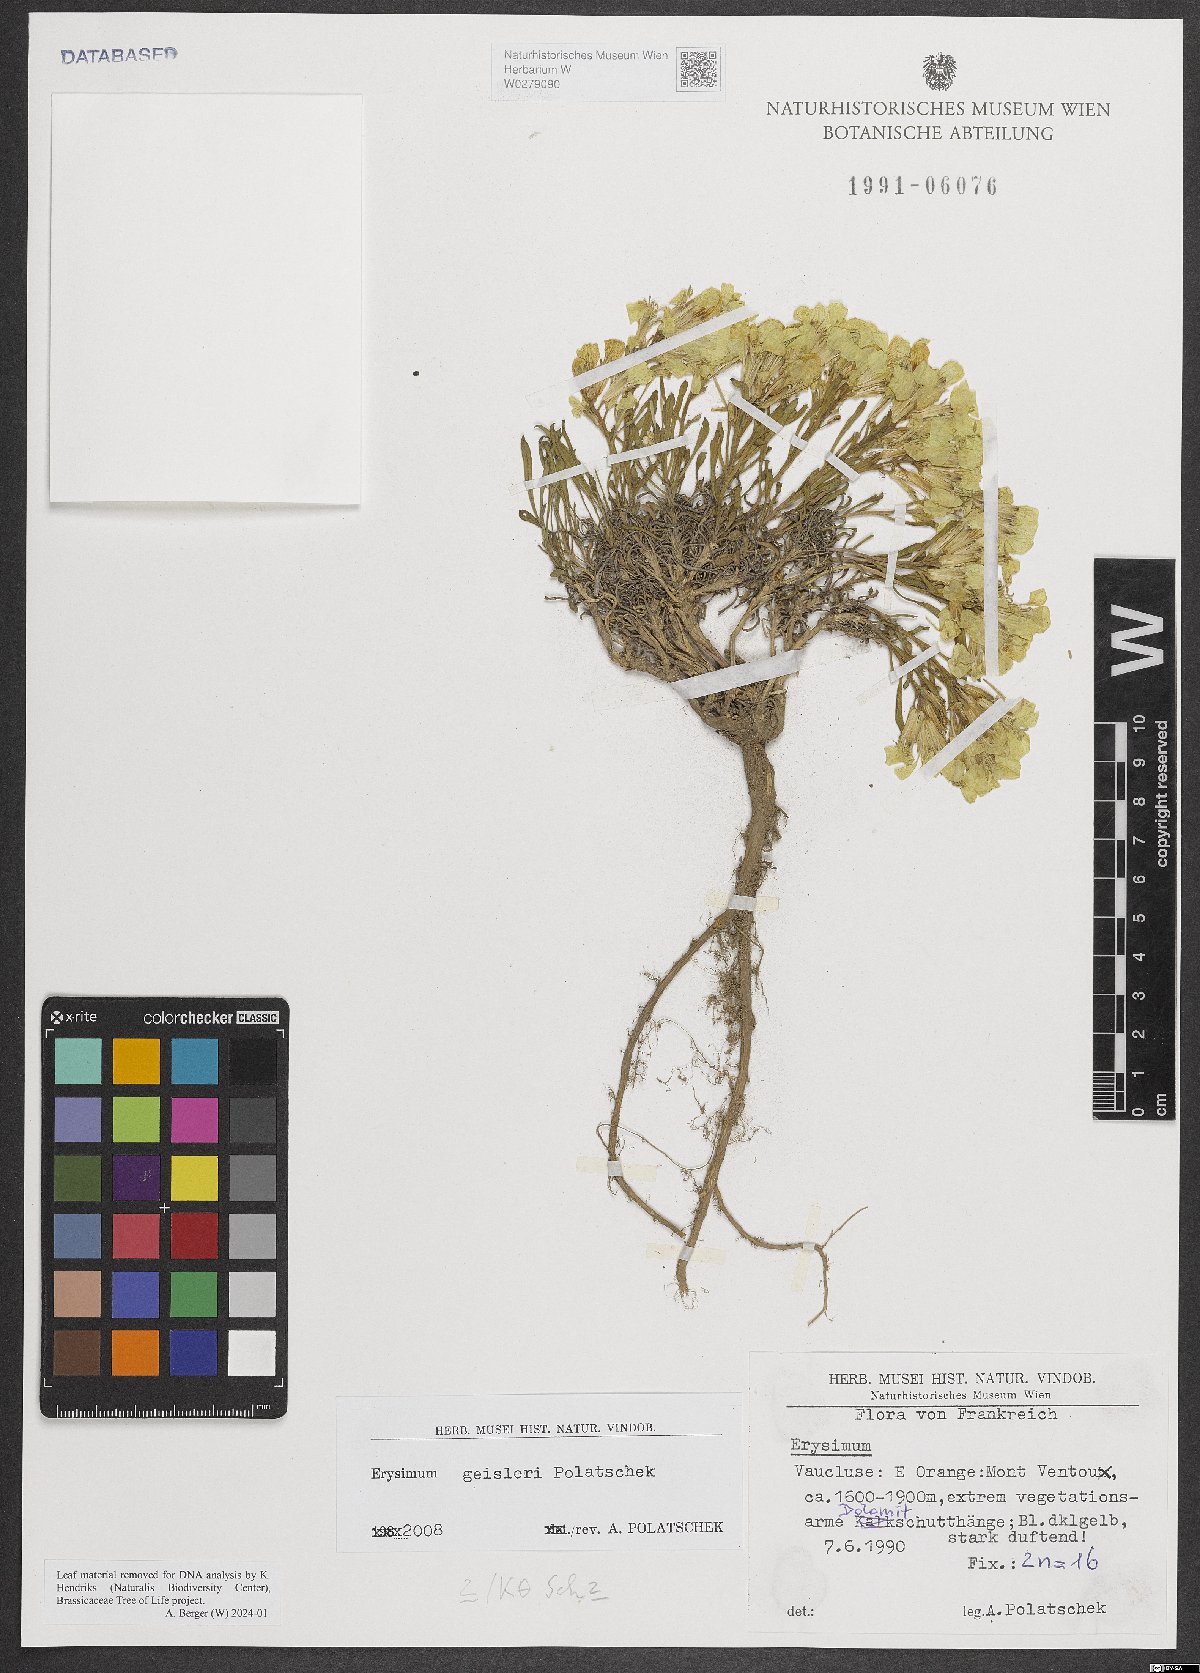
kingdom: Plantae
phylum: Tracheophyta
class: Magnoliopsida
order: Brassicales
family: Brassicaceae
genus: Erysimum
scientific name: Erysimum geisleri
